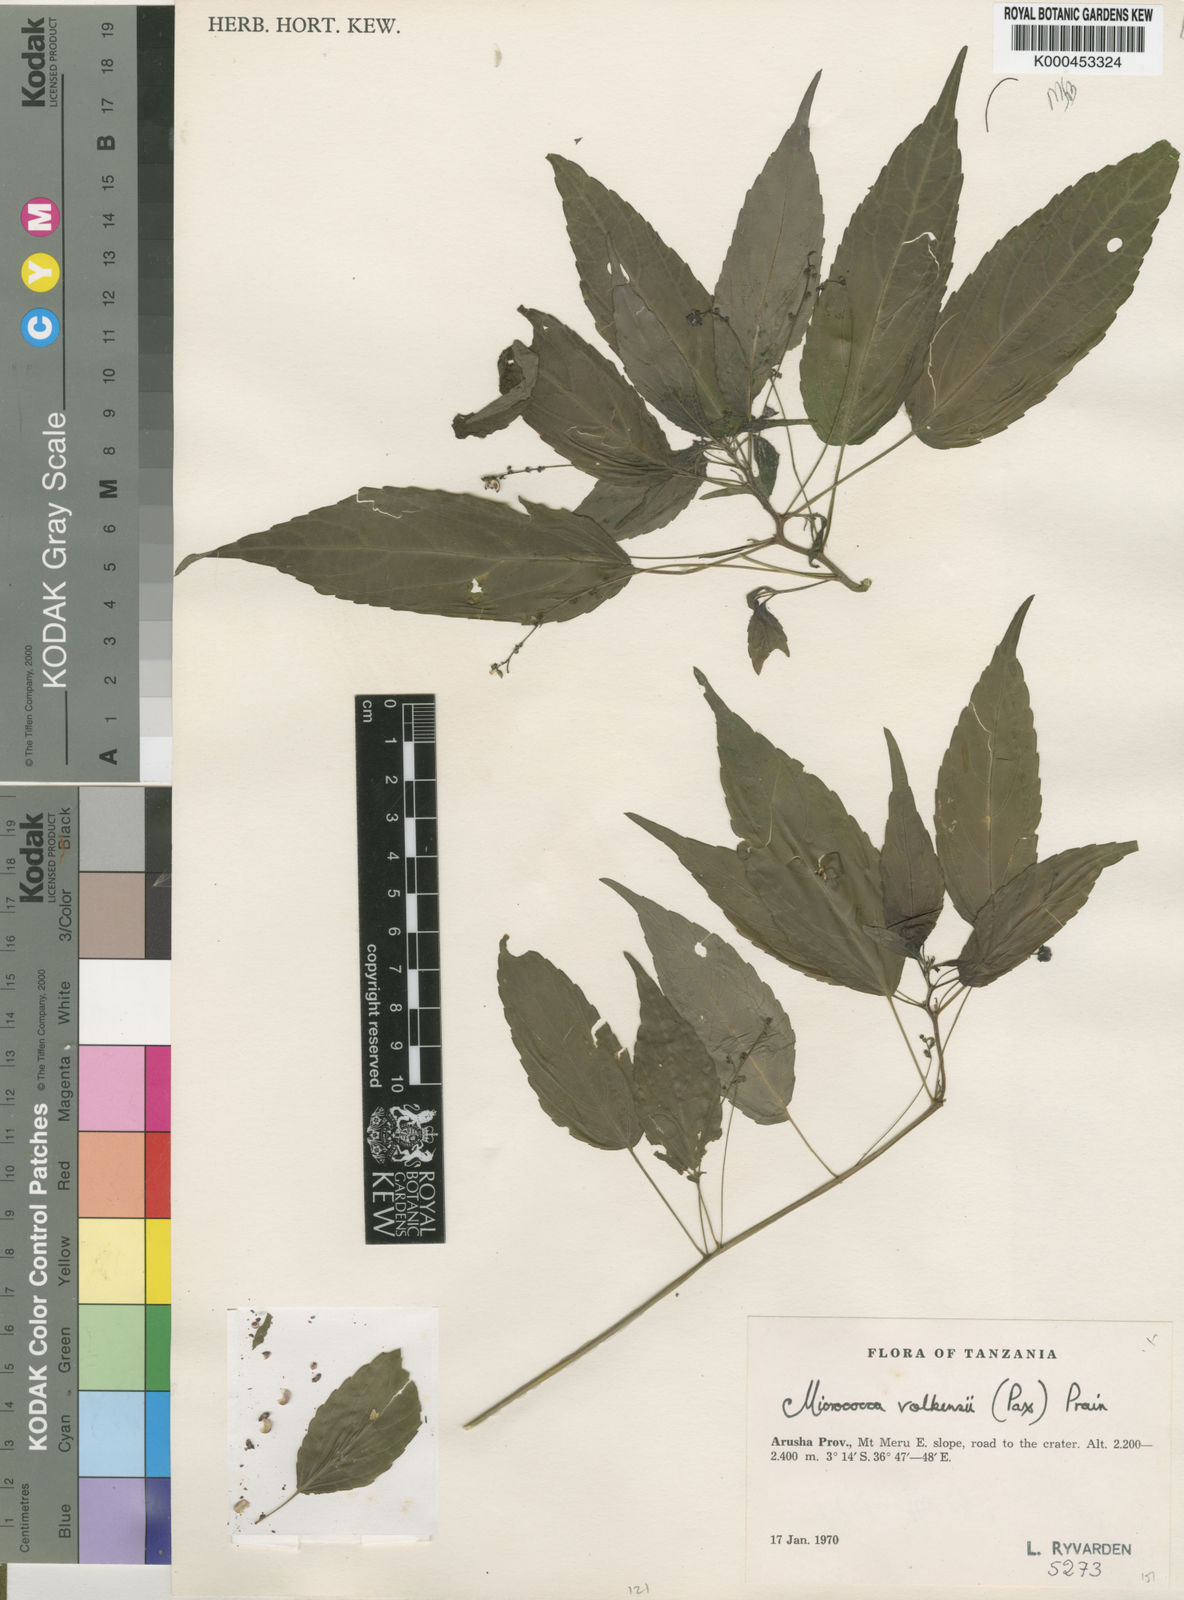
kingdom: Plantae
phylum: Tracheophyta
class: Magnoliopsida
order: Malpighiales
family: Euphorbiaceae
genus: Micrococca
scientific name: Micrococca volkensii
